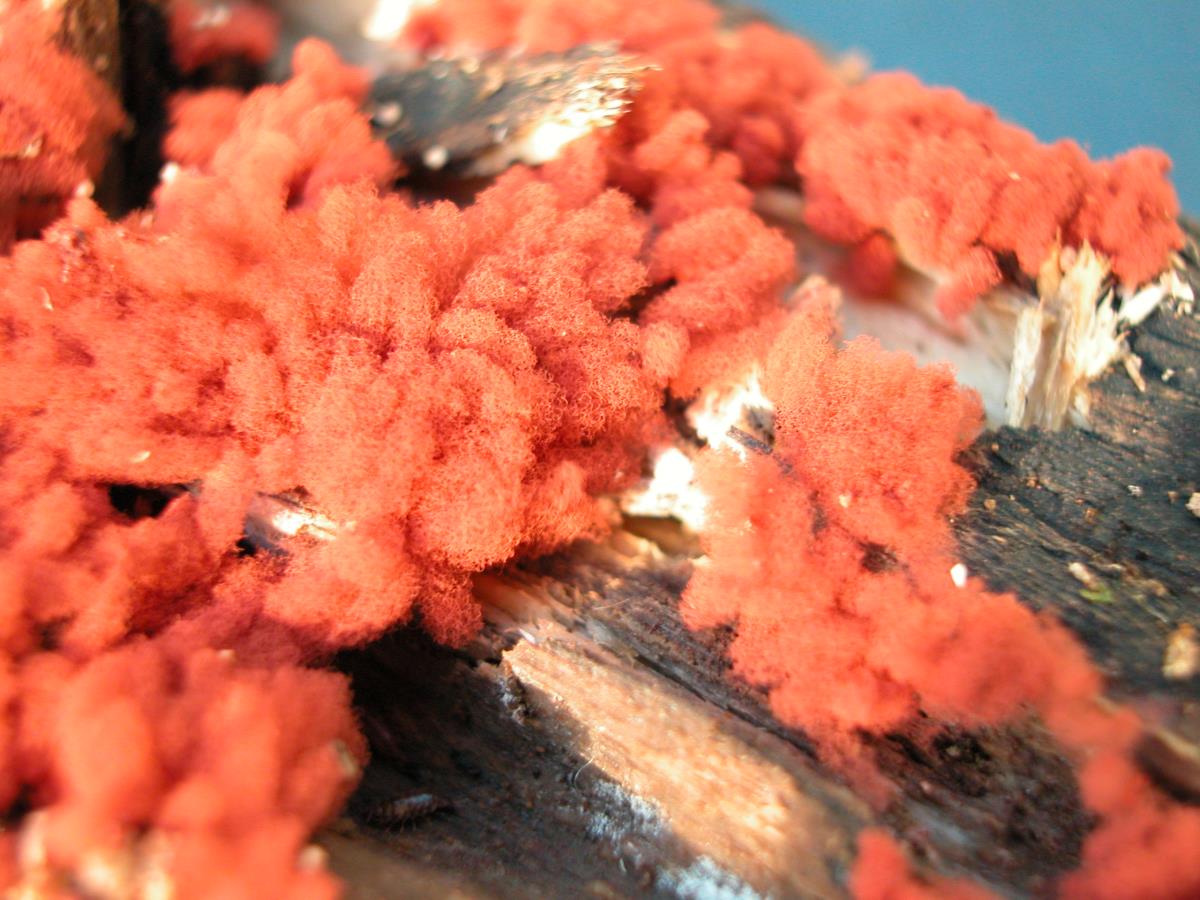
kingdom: Protozoa
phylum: Mycetozoa
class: Myxomycetes
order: Trichiales
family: Arcyriaceae
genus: Arcyria
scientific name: Arcyria incarnata
